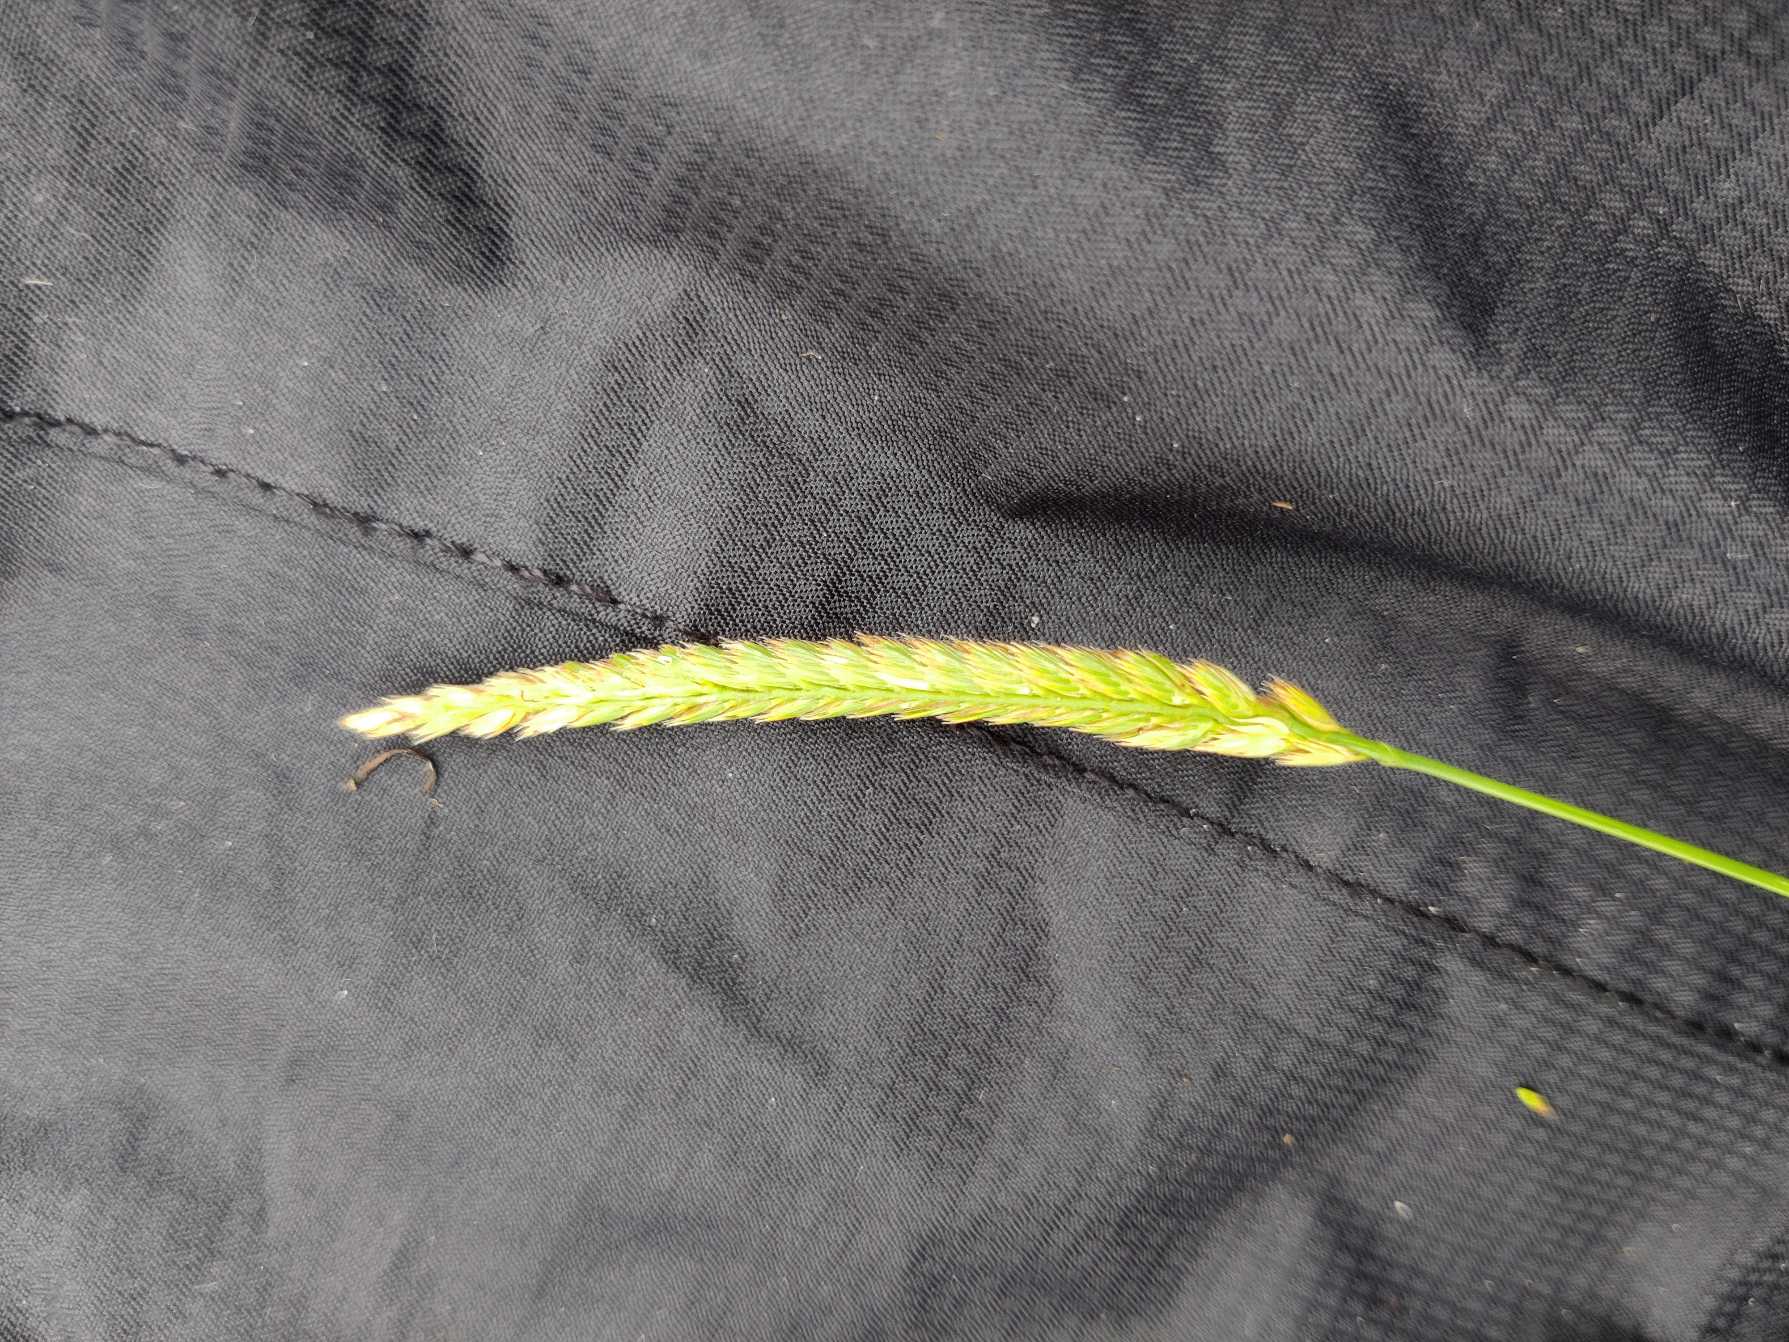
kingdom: Plantae
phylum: Tracheophyta
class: Liliopsida
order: Poales
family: Poaceae
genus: Cynosurus
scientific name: Cynosurus cristatus
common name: Kamgræs
